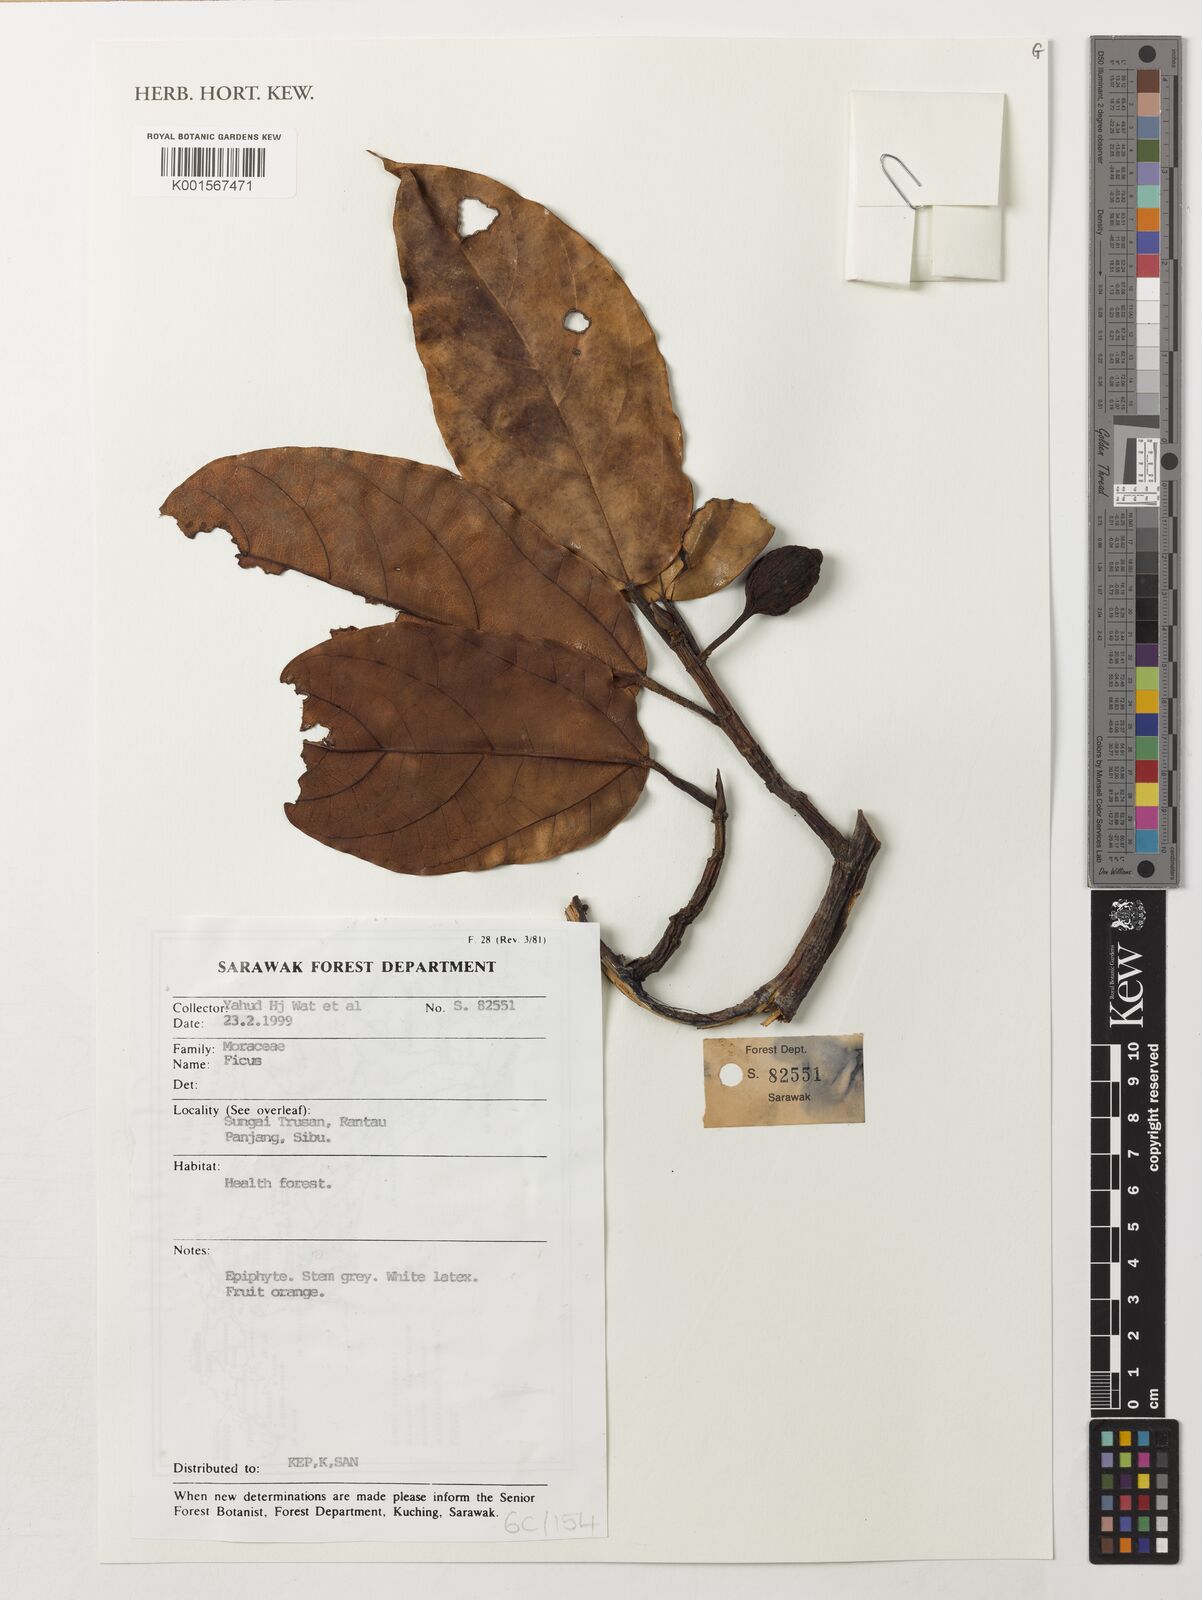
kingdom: Plantae
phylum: Tracheophyta
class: Magnoliopsida
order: Rosales
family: Moraceae
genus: Ficus
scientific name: Ficus
